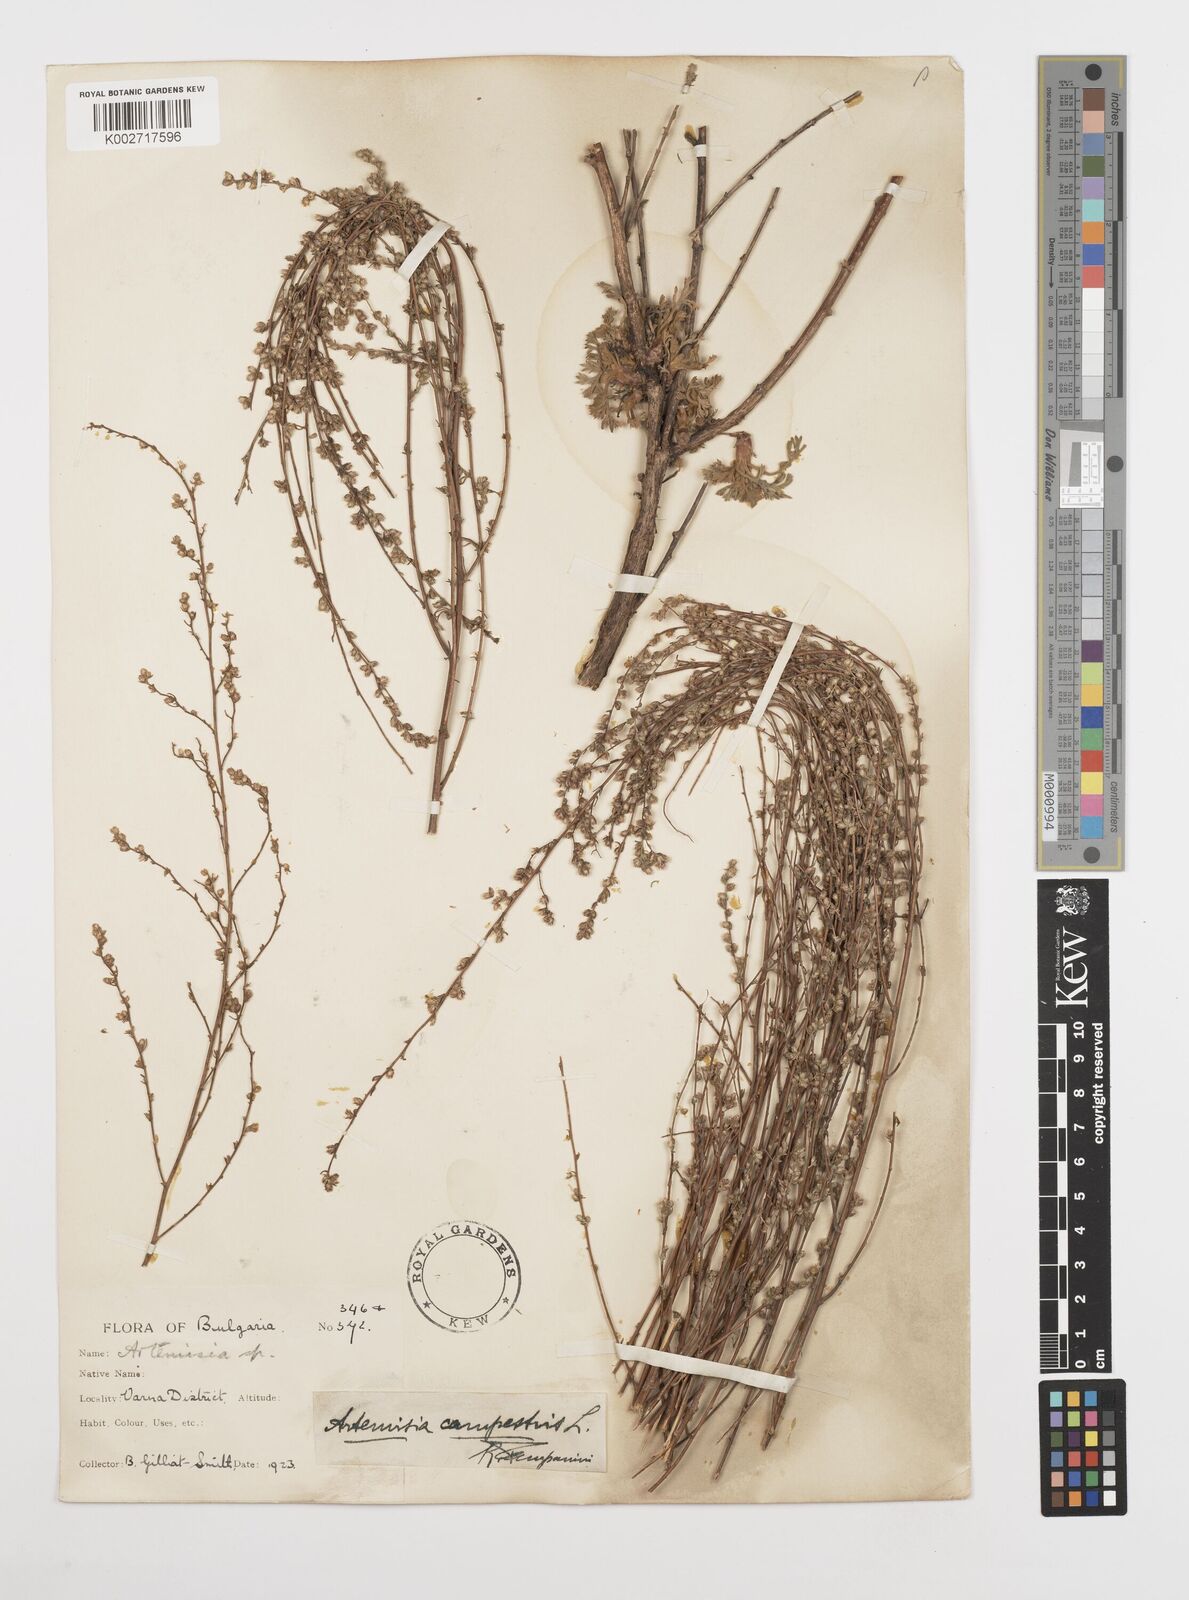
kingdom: Plantae
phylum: Tracheophyta
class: Magnoliopsida
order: Asterales
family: Asteraceae
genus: Artemisia
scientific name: Artemisia campestris
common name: Field wormwood
